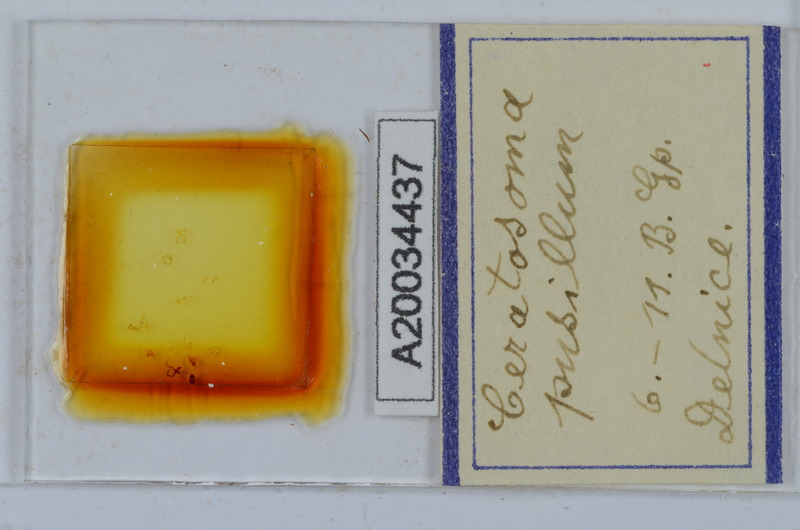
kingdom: Animalia
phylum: Arthropoda
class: Diplopoda
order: Chordeumatida
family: Craspedosomatidae
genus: Ochogona
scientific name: Ochogona pusilla
